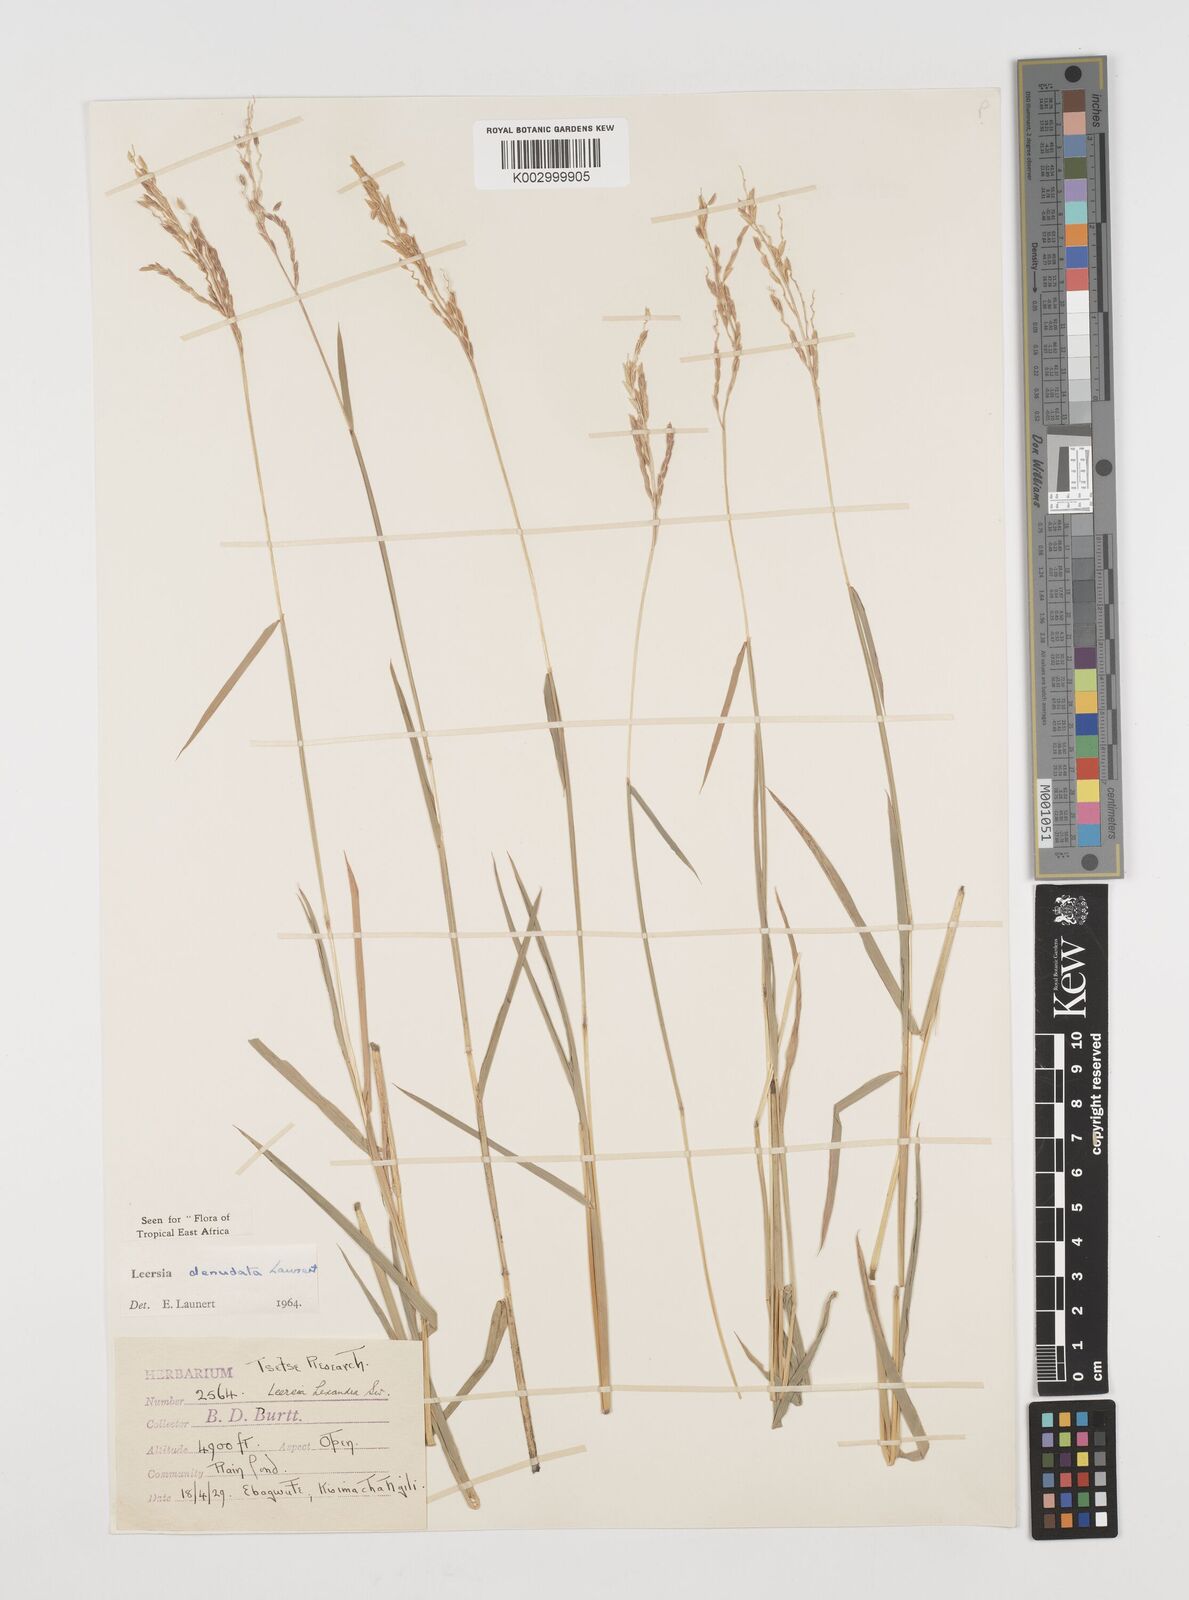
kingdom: Plantae
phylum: Tracheophyta
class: Liliopsida
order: Poales
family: Poaceae
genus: Leersia
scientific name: Leersia denudata
